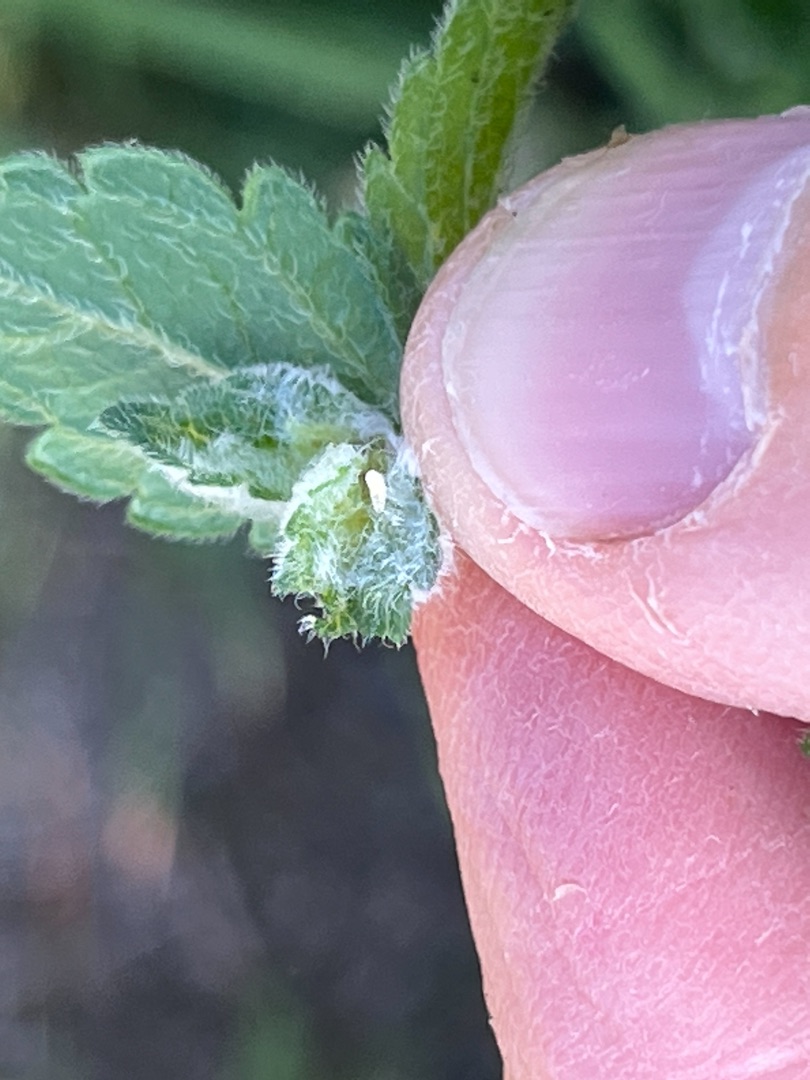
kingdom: Animalia
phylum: Arthropoda
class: Insecta
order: Diptera
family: Cecidomyiidae
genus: Macrolabis
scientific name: Macrolabis incolens
